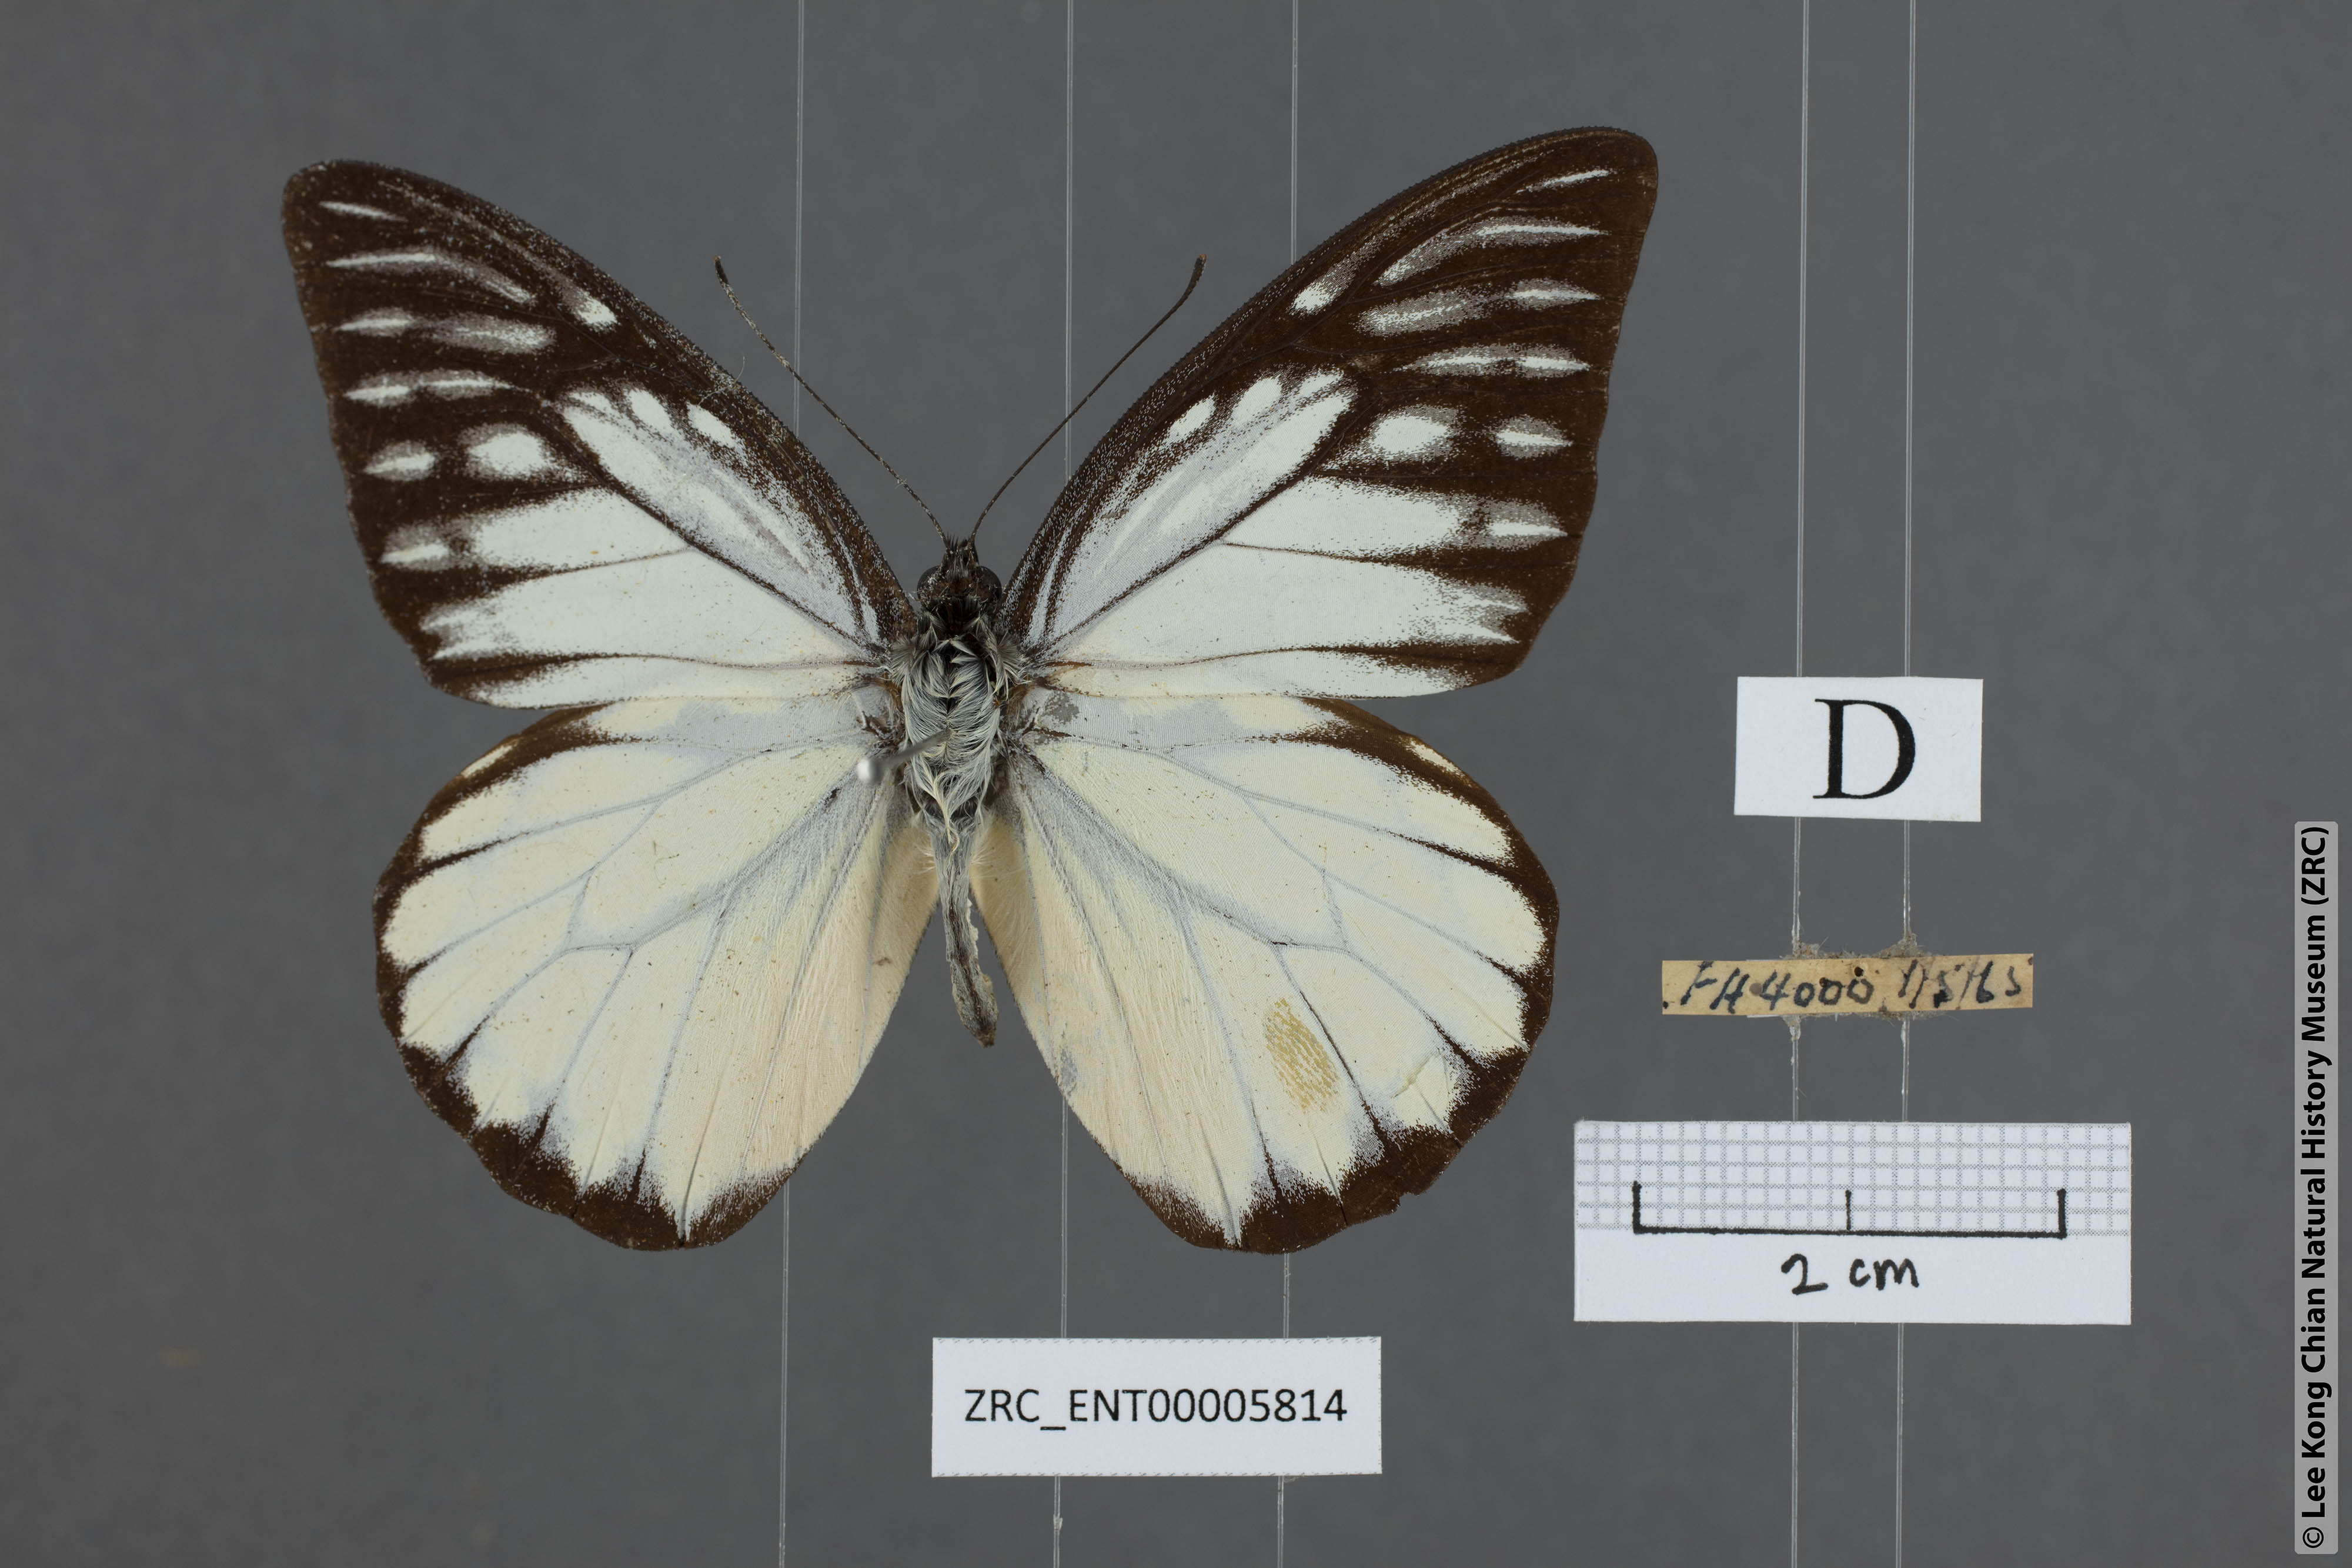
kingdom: Animalia
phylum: Arthropoda
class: Insecta
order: Lepidoptera
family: Pieridae
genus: Prioneris
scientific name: Prioneris thestylis
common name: Spotted sawtooth
